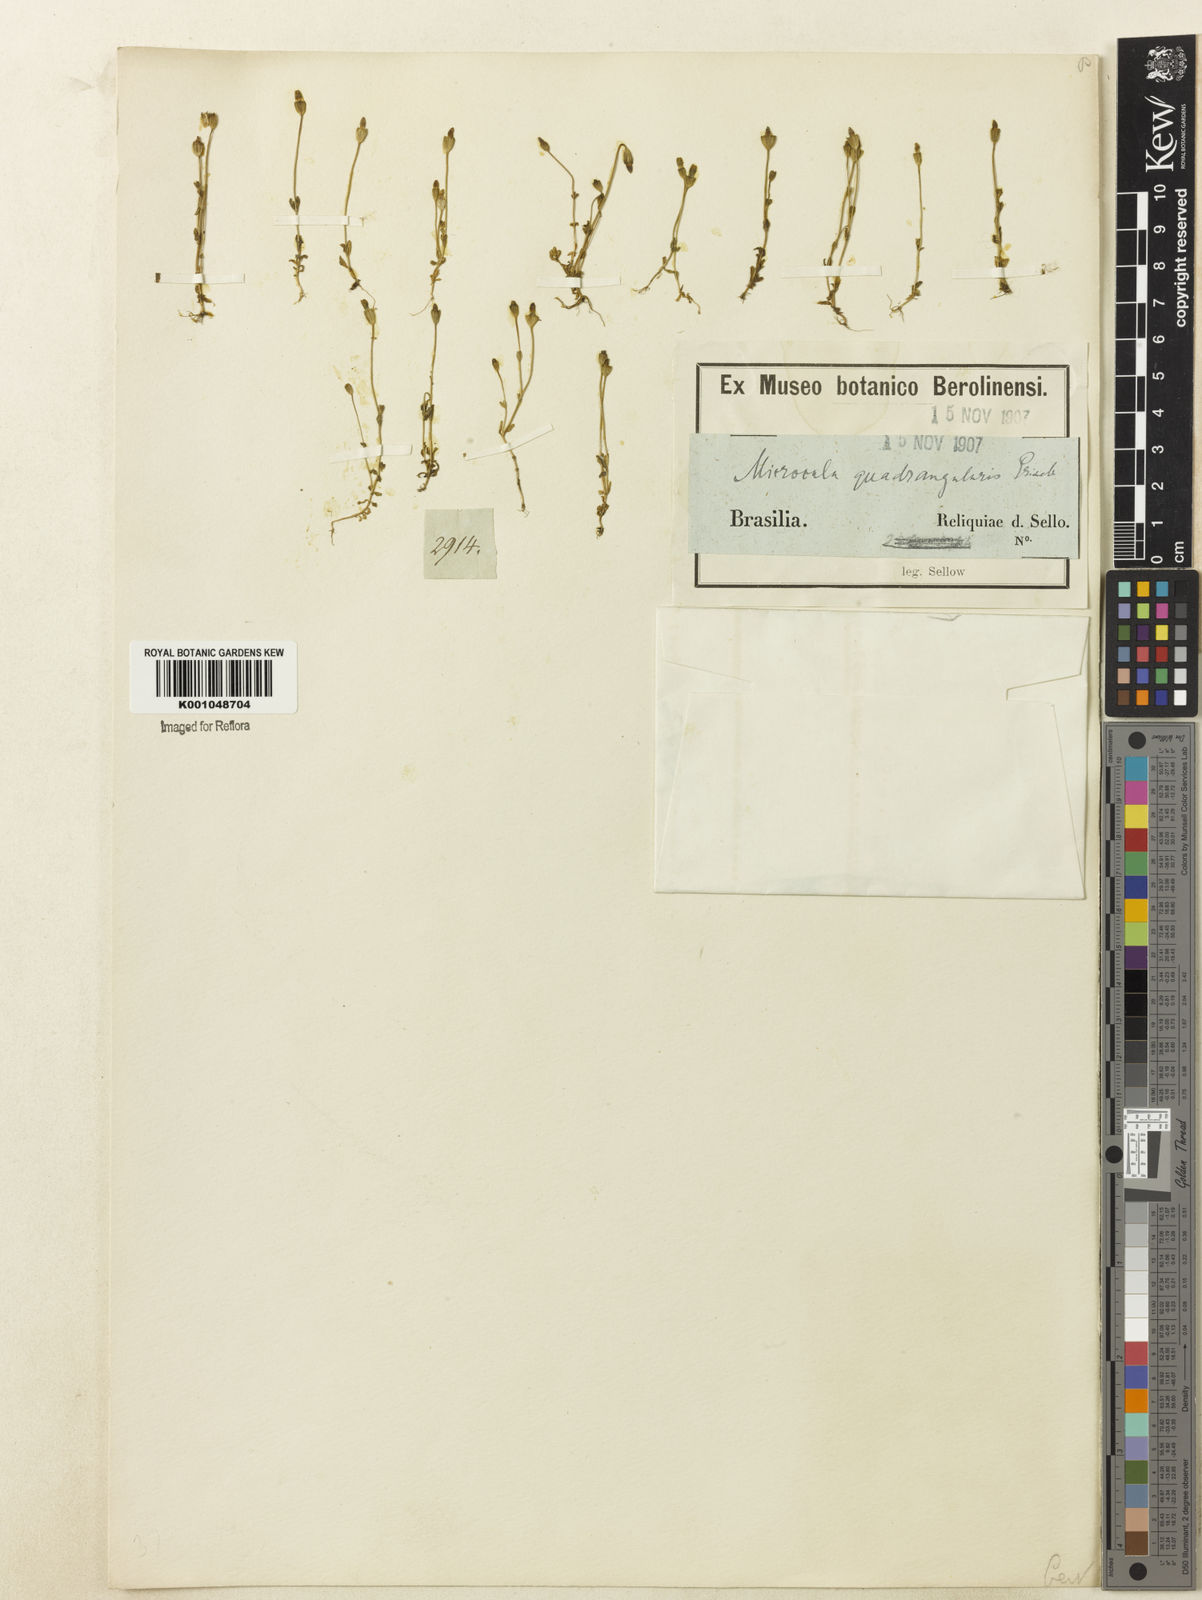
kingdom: Plantae
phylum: Tracheophyta
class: Magnoliopsida
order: Gentianales
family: Gentianaceae
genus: Microcala
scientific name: Microcala quadrangularis
